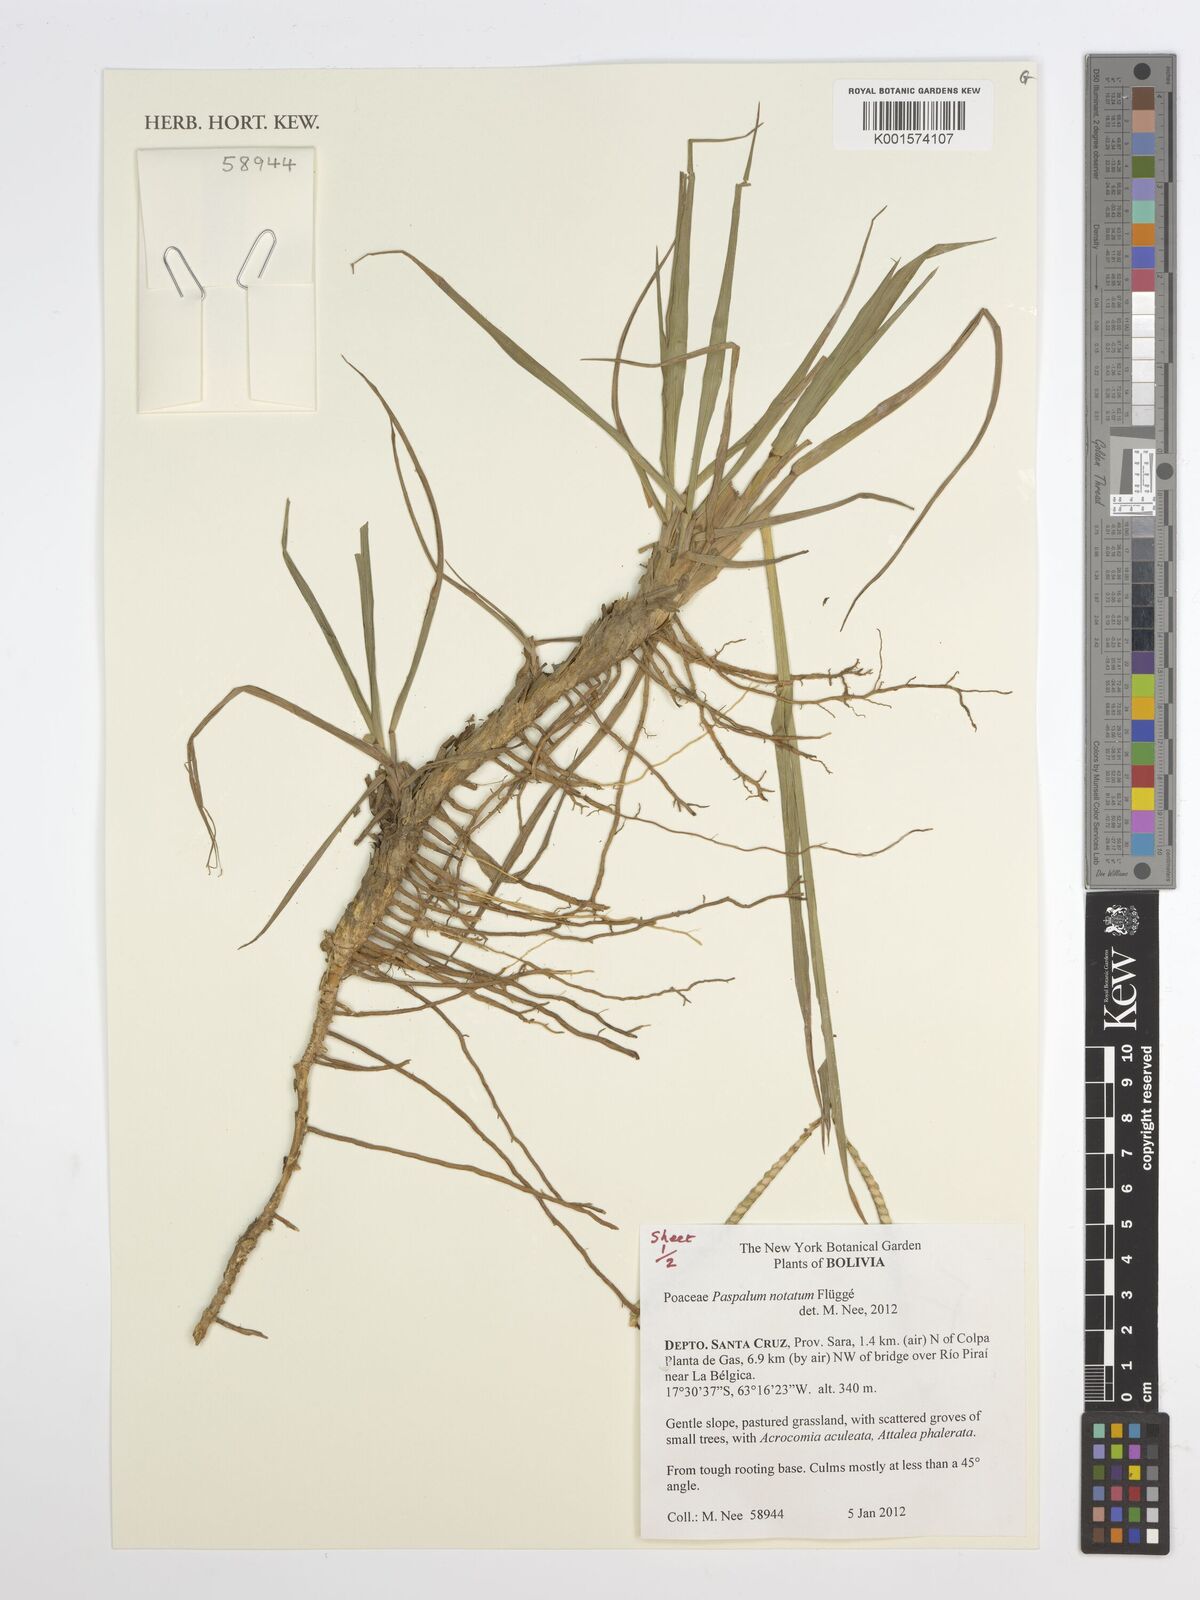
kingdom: Plantae
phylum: Tracheophyta
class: Liliopsida
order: Poales
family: Poaceae
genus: Paspalum
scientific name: Paspalum notatum
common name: Bahiagrass
